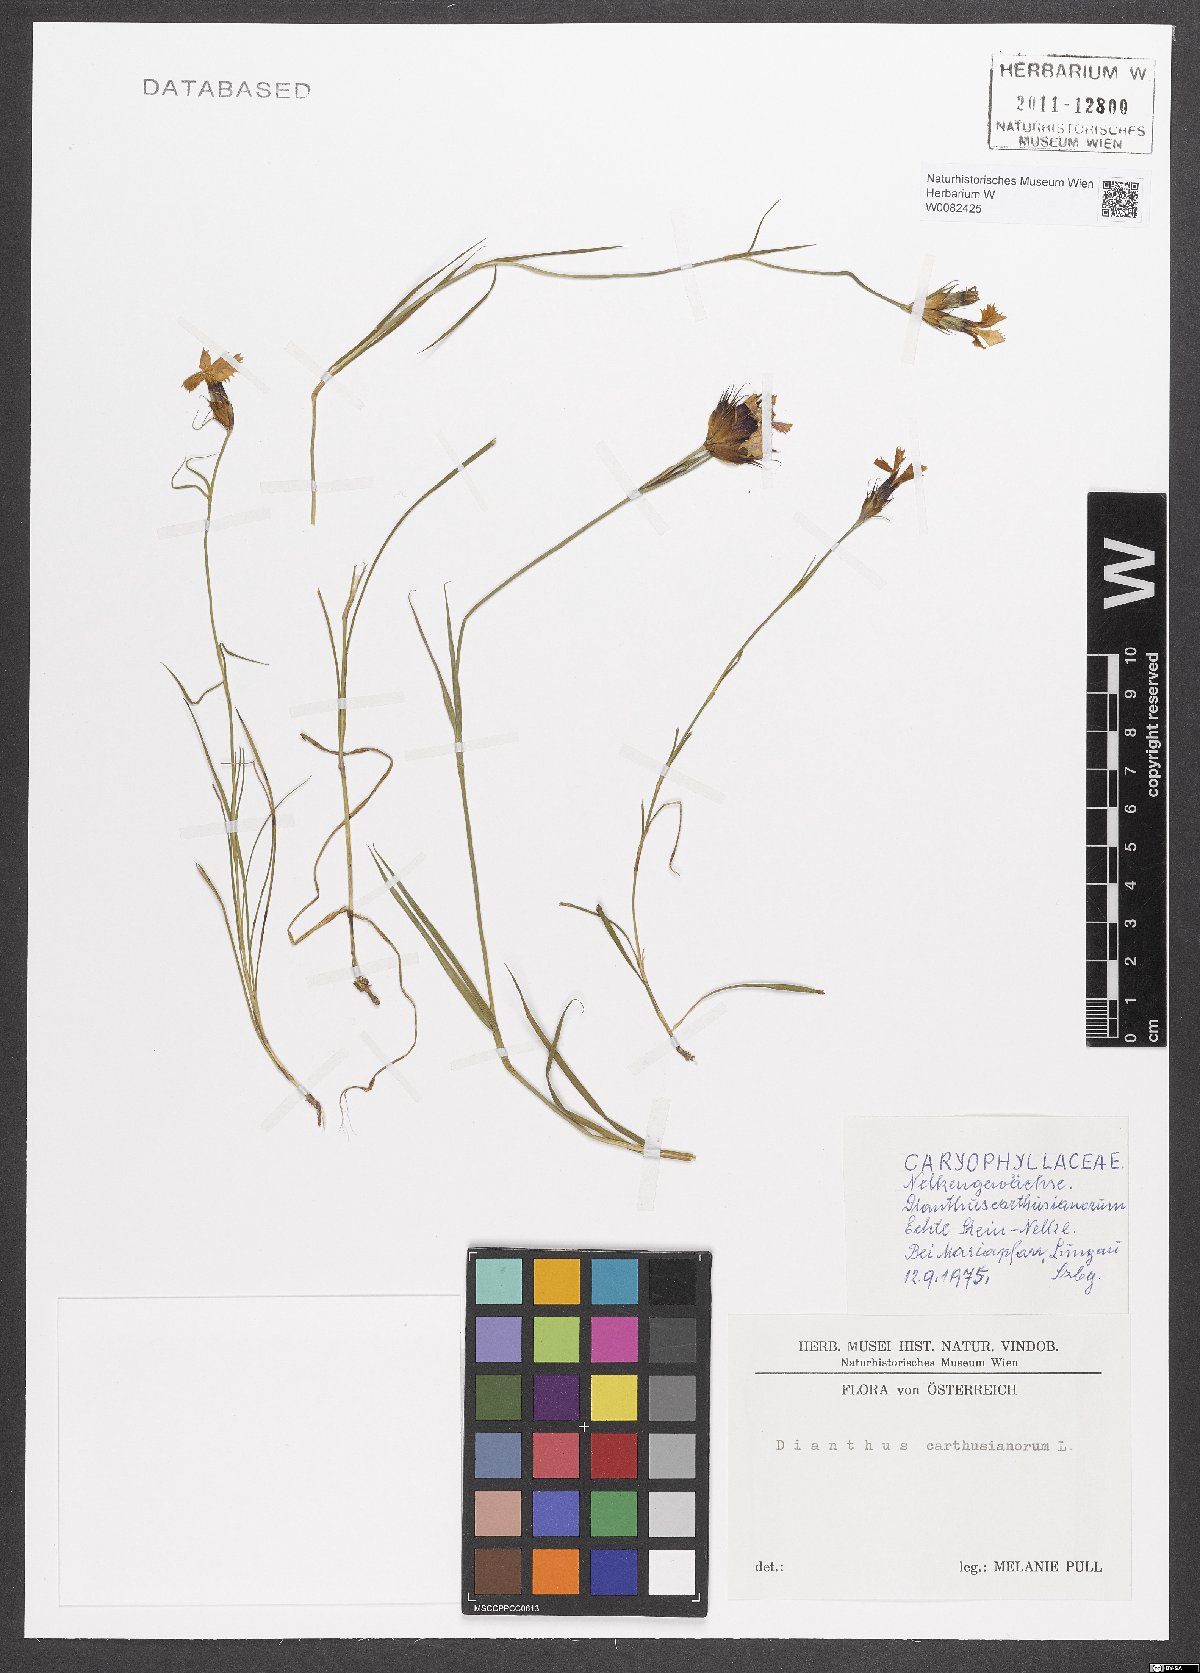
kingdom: Plantae
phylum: Tracheophyta
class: Magnoliopsida
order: Caryophyllales
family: Caryophyllaceae
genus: Dianthus
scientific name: Dianthus carthusianorum
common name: Carthusian pink
